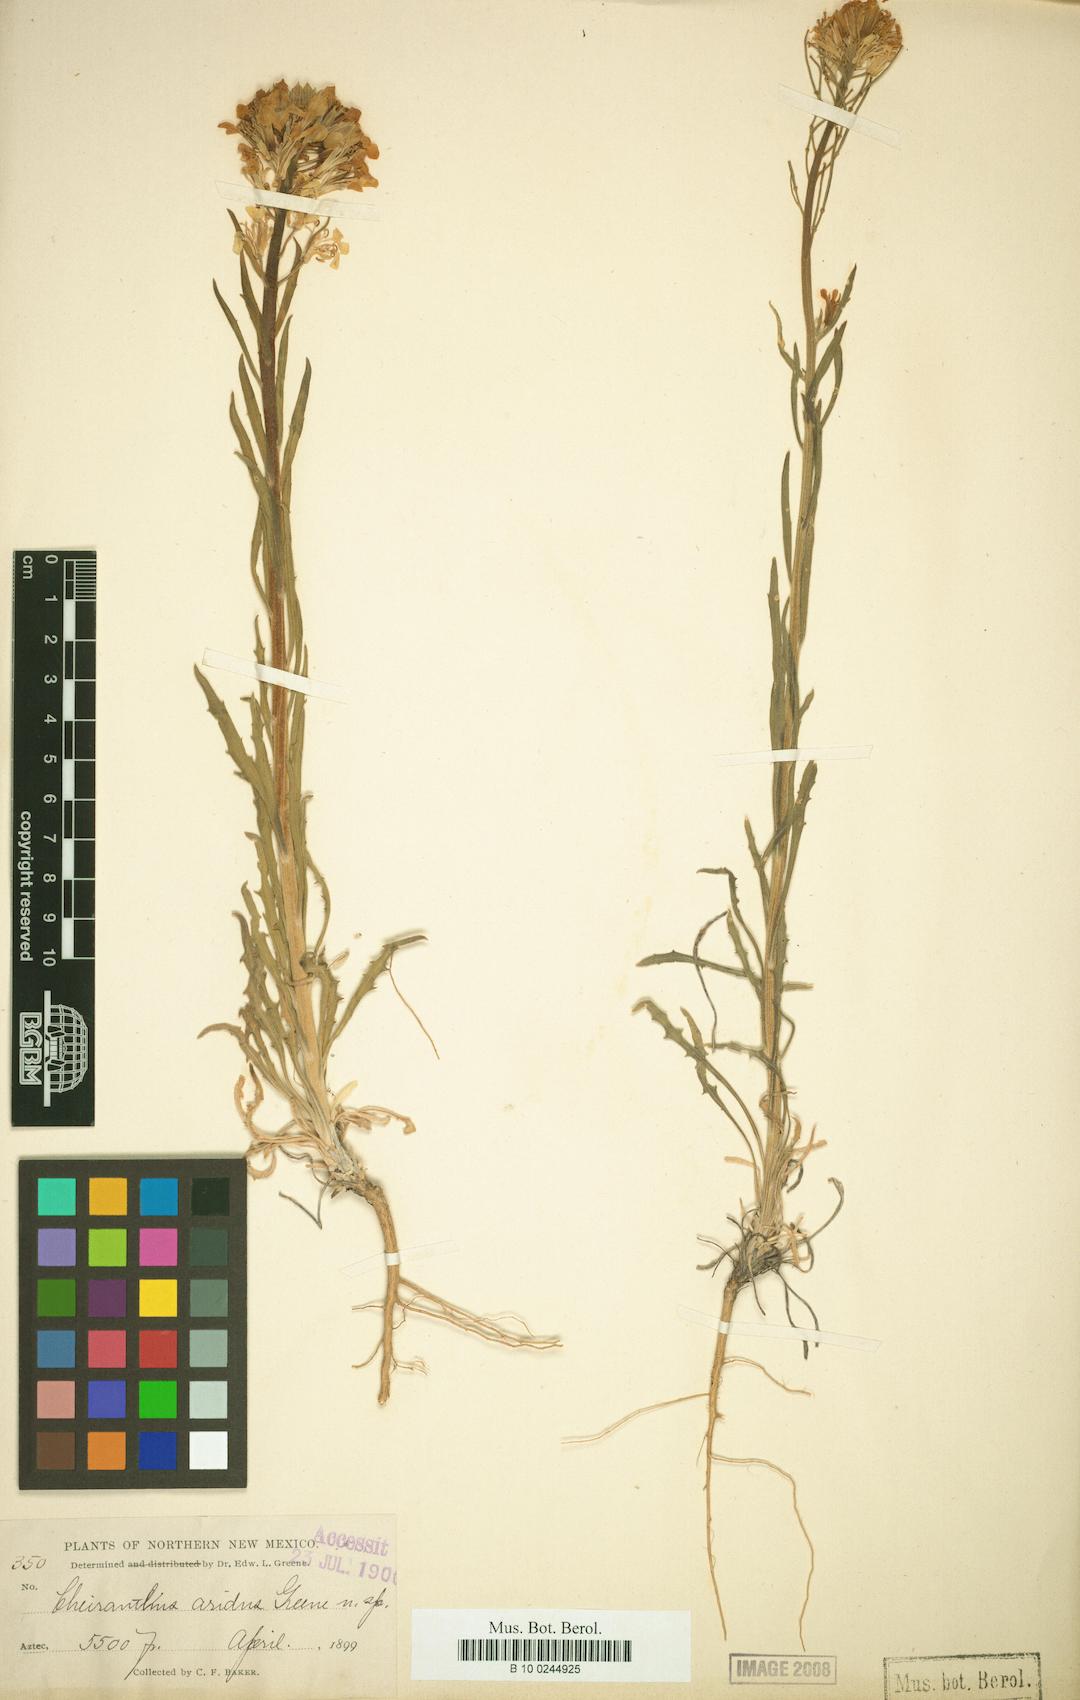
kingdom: Plantae
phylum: Tracheophyta
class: Magnoliopsida
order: Brassicales
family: Brassicaceae
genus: Erysimum
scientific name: Erysimum capitatum
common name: Western wallflower
